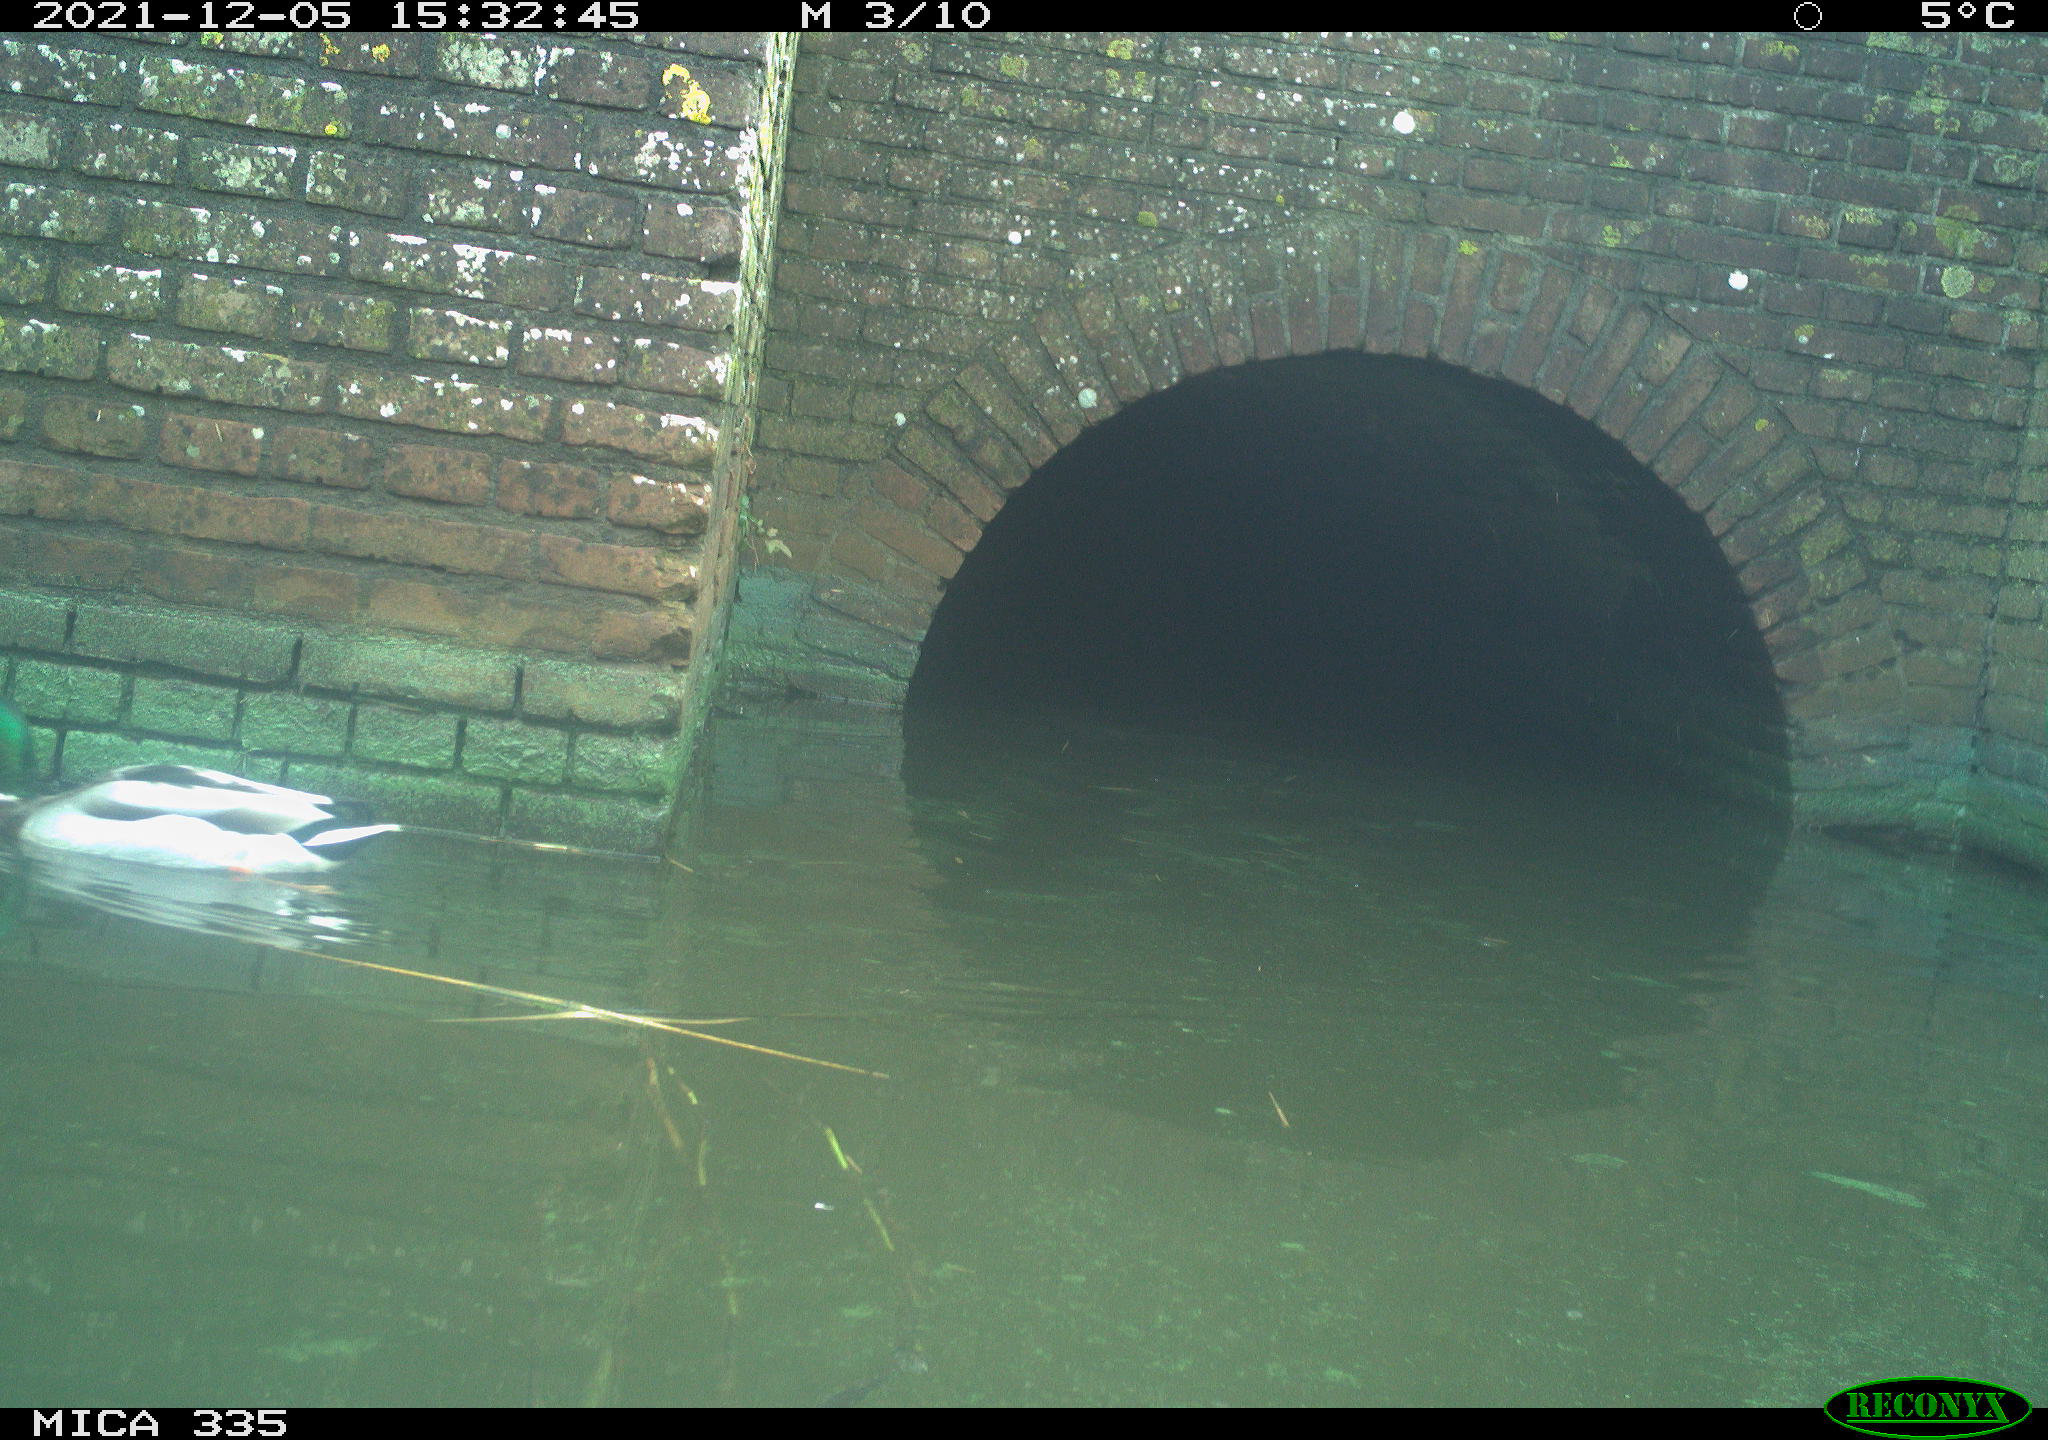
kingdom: Animalia
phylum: Chordata
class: Aves
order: Anseriformes
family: Anatidae
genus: Anas
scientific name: Anas platyrhynchos
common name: Mallard
